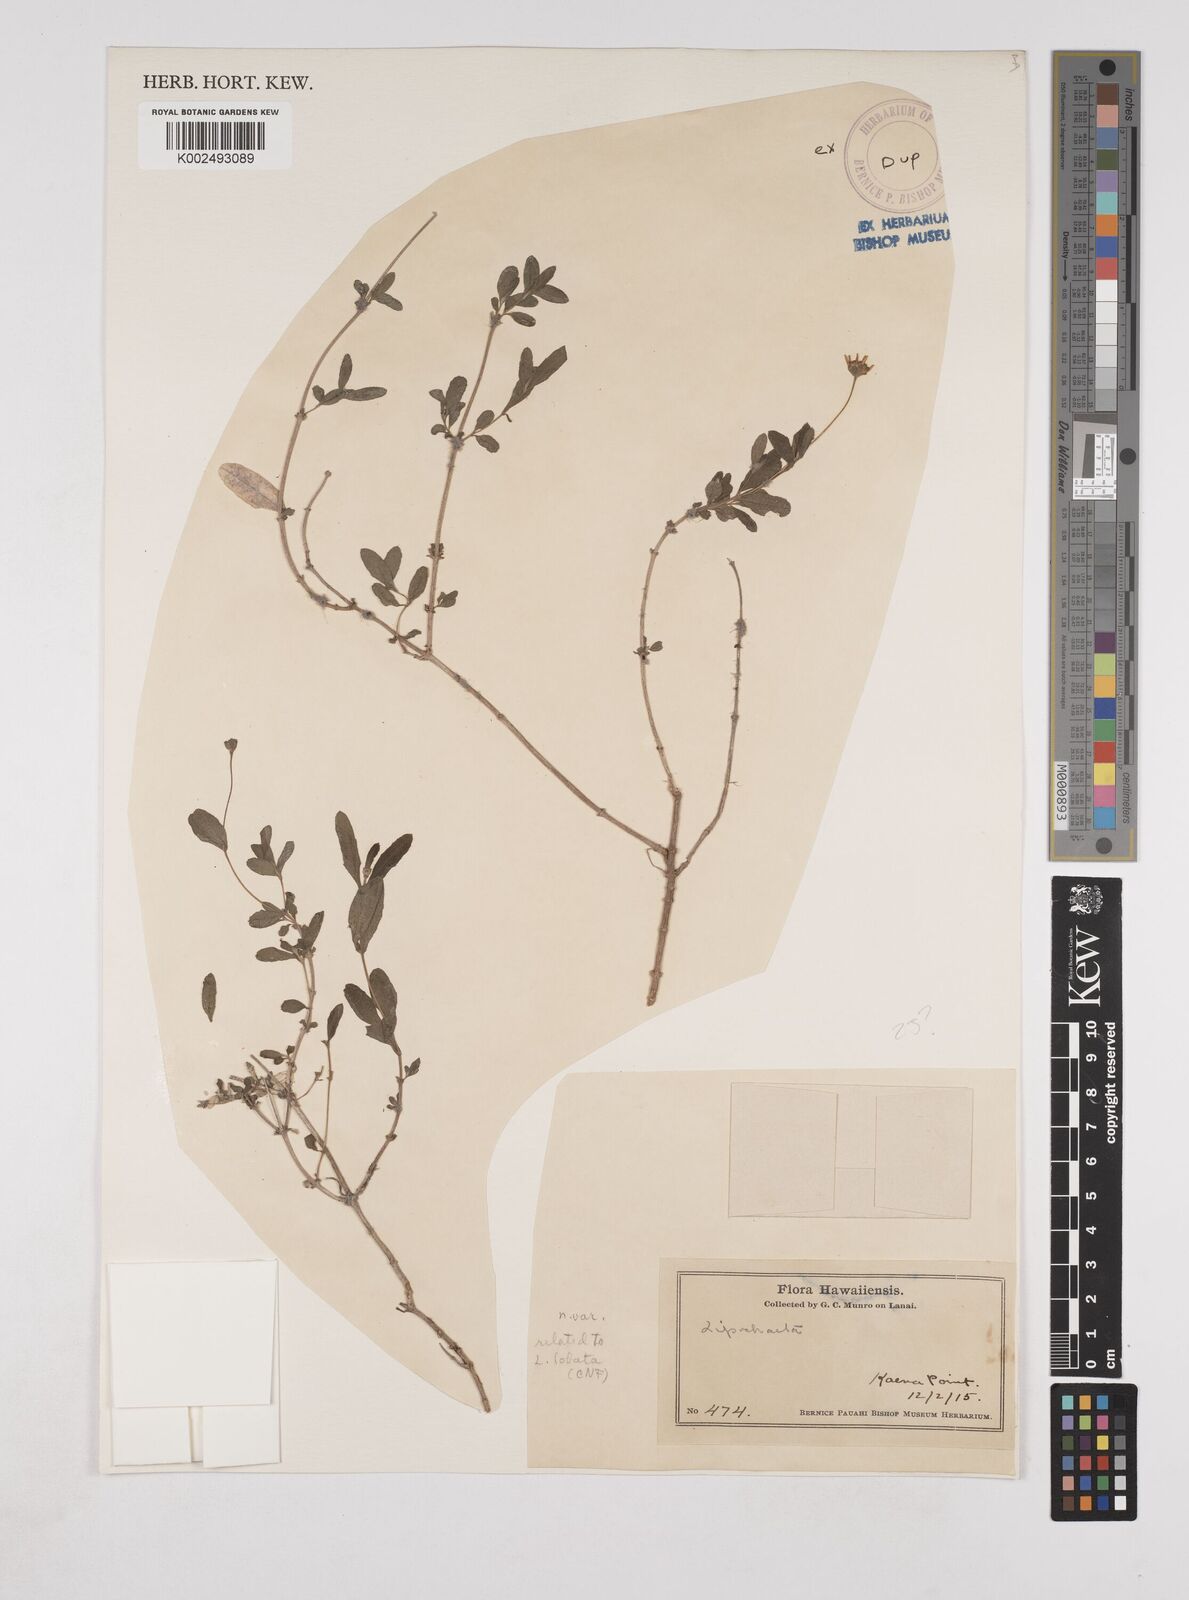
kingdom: Plantae
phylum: Tracheophyta
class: Magnoliopsida
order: Asterales
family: Asteraceae
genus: Lipochaeta
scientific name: Lipochaeta
